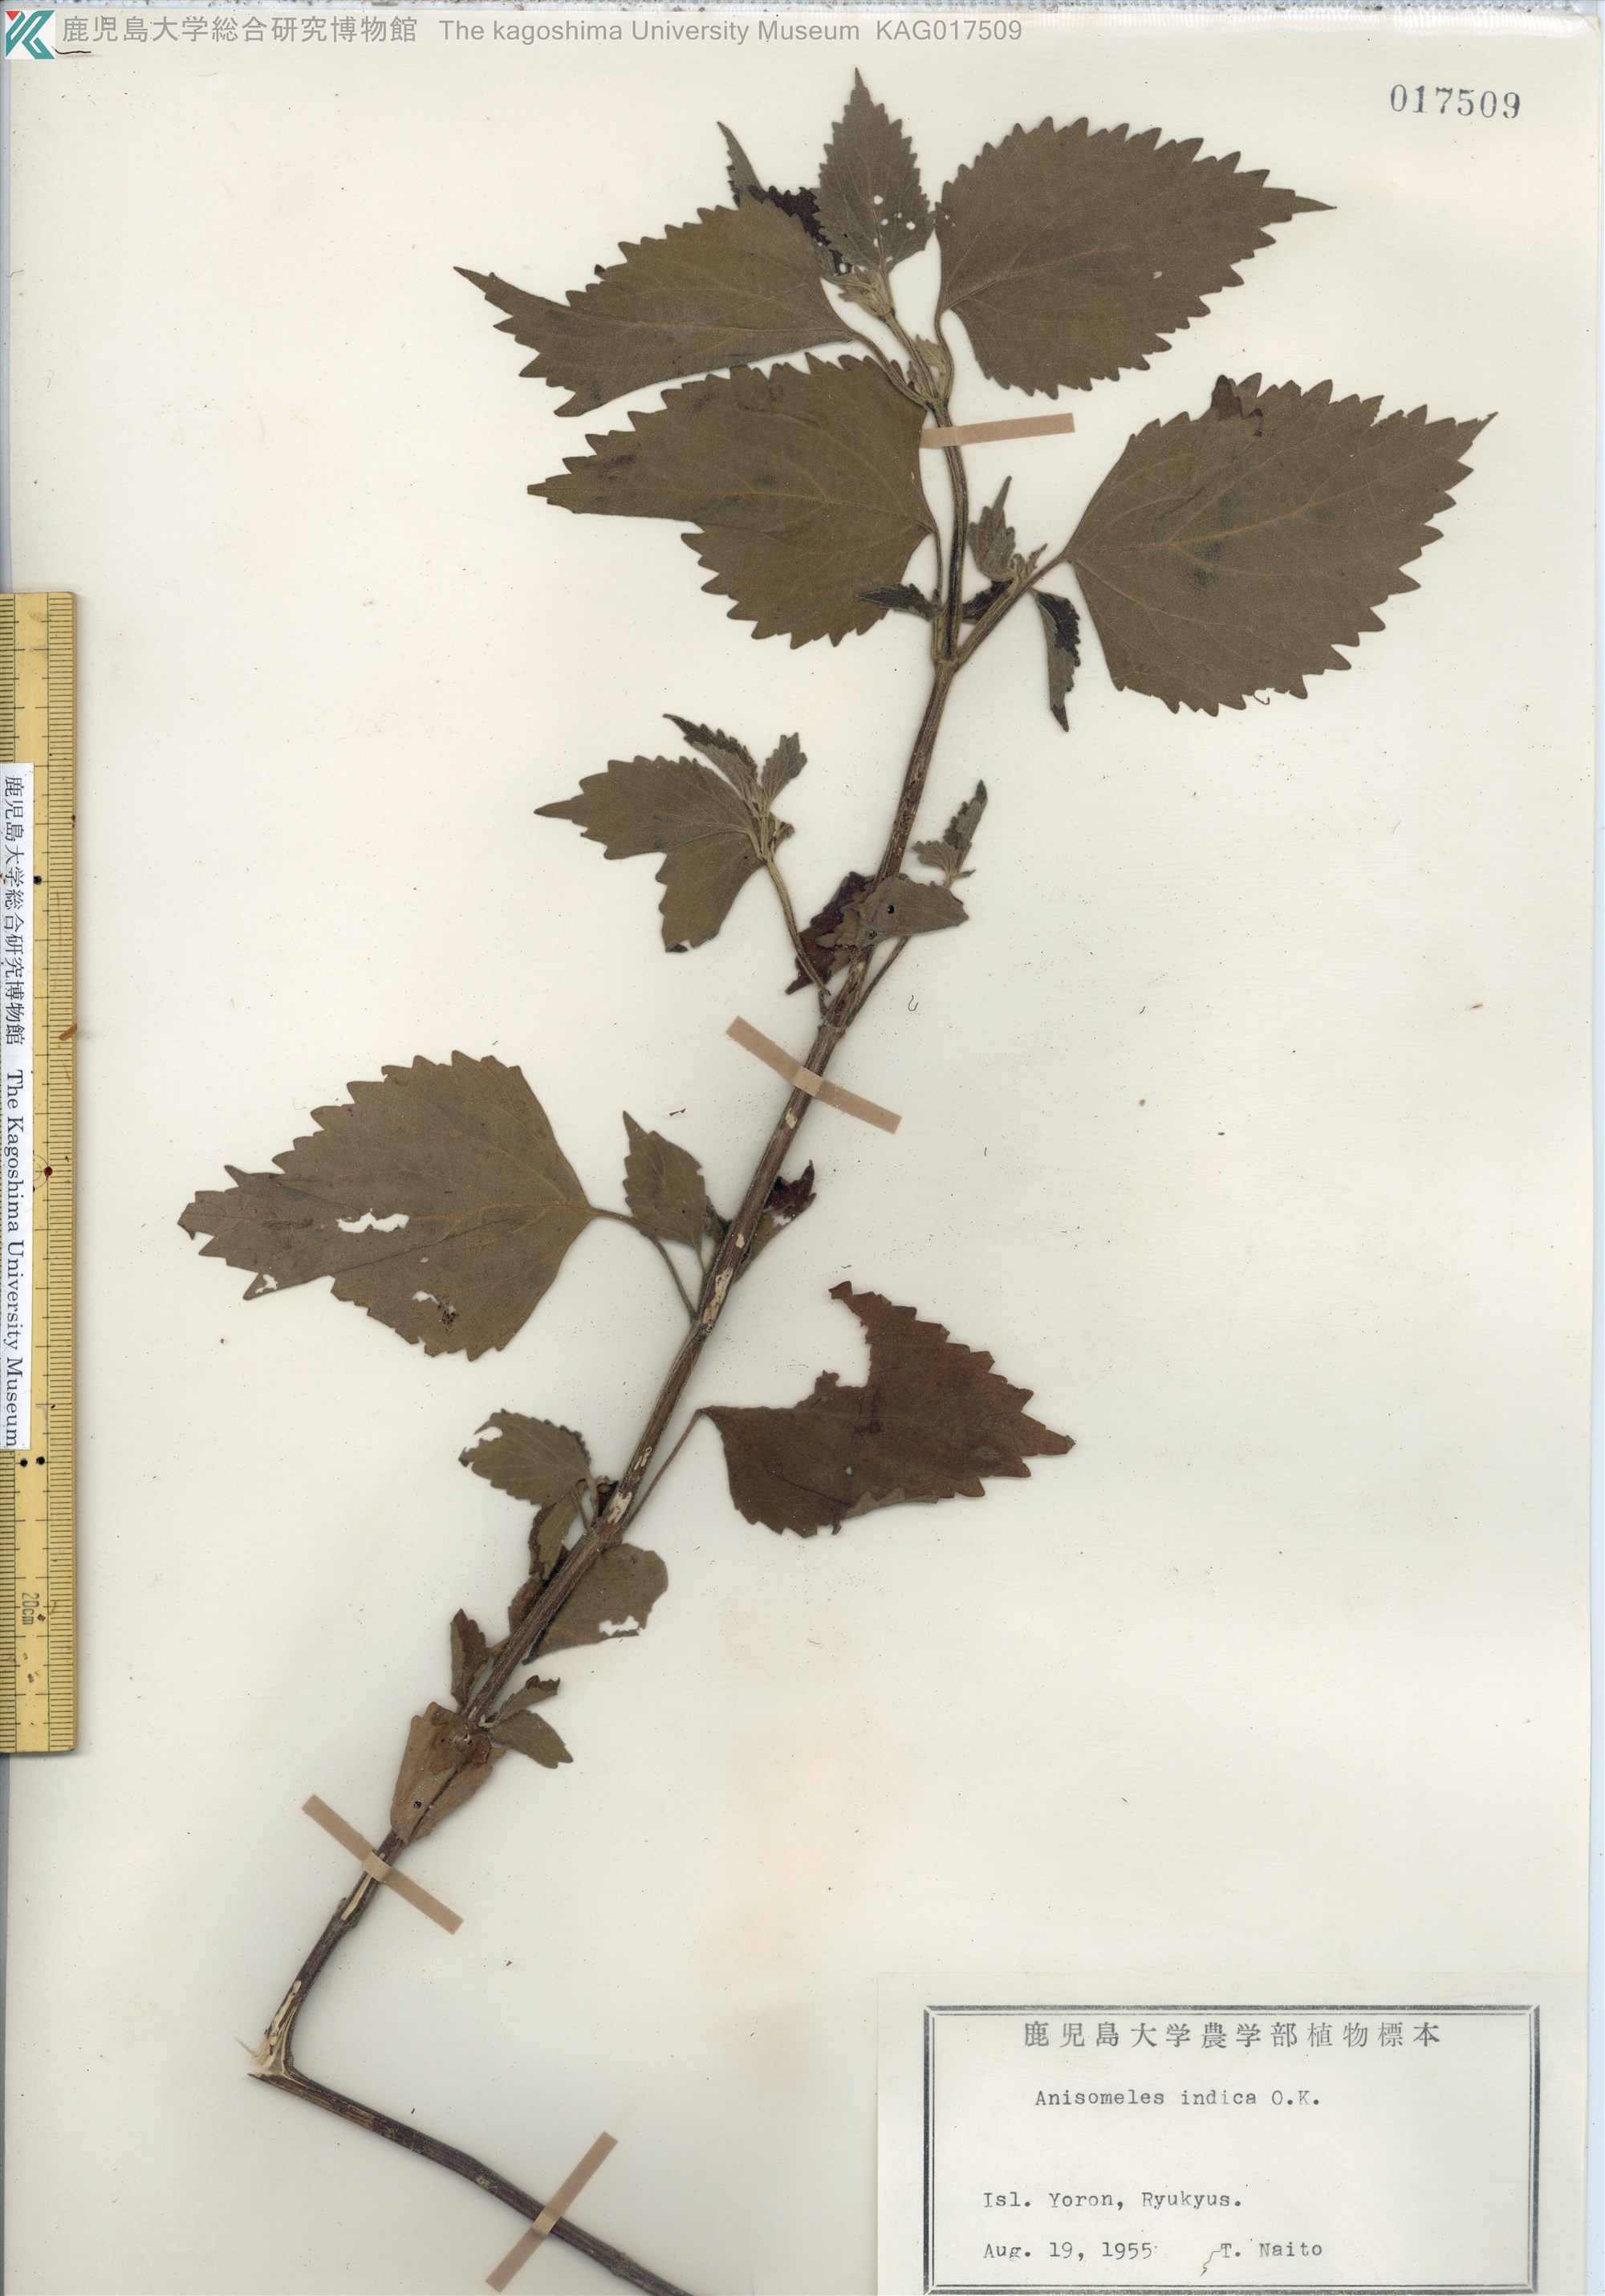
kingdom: Plantae
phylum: Tracheophyta
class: Magnoliopsida
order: Lamiales
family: Lamiaceae
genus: Anisomeles
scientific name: Anisomeles indica
